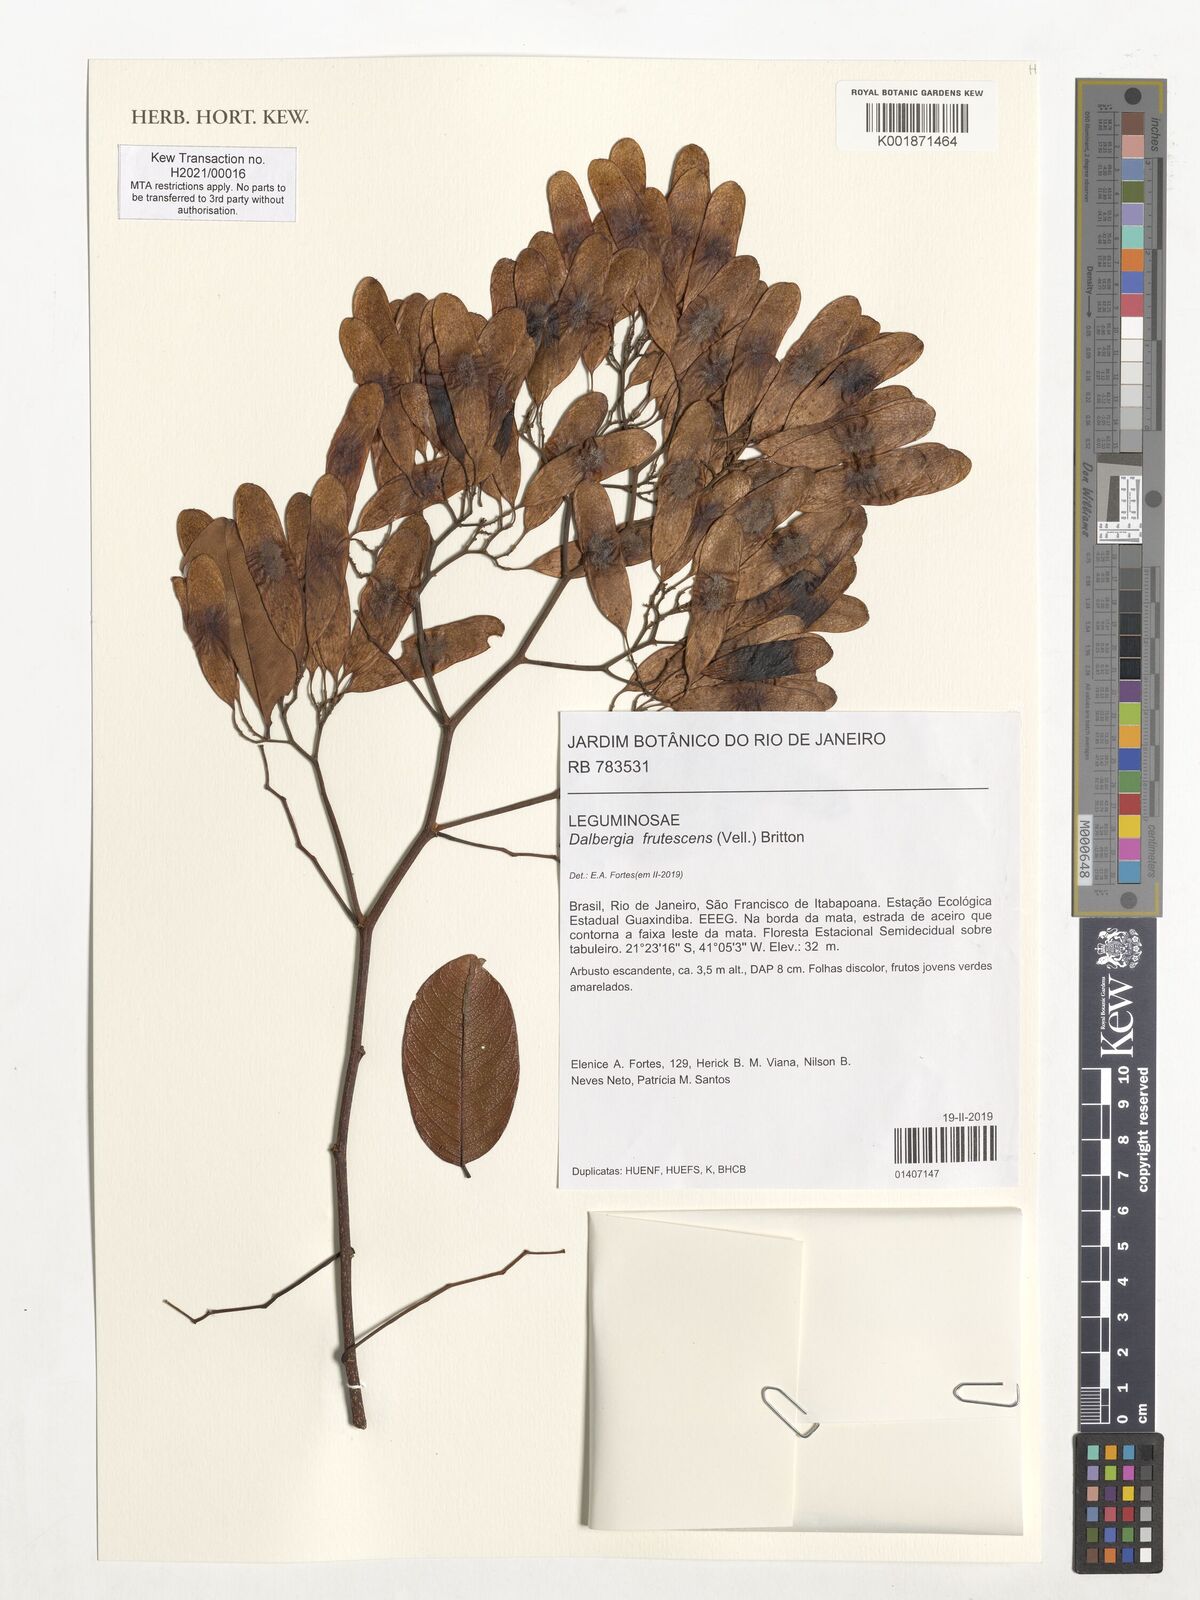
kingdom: Plantae
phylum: Tracheophyta
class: Magnoliopsida
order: Fabales
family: Fabaceae
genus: Dalbergia
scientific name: Dalbergia frutescens
